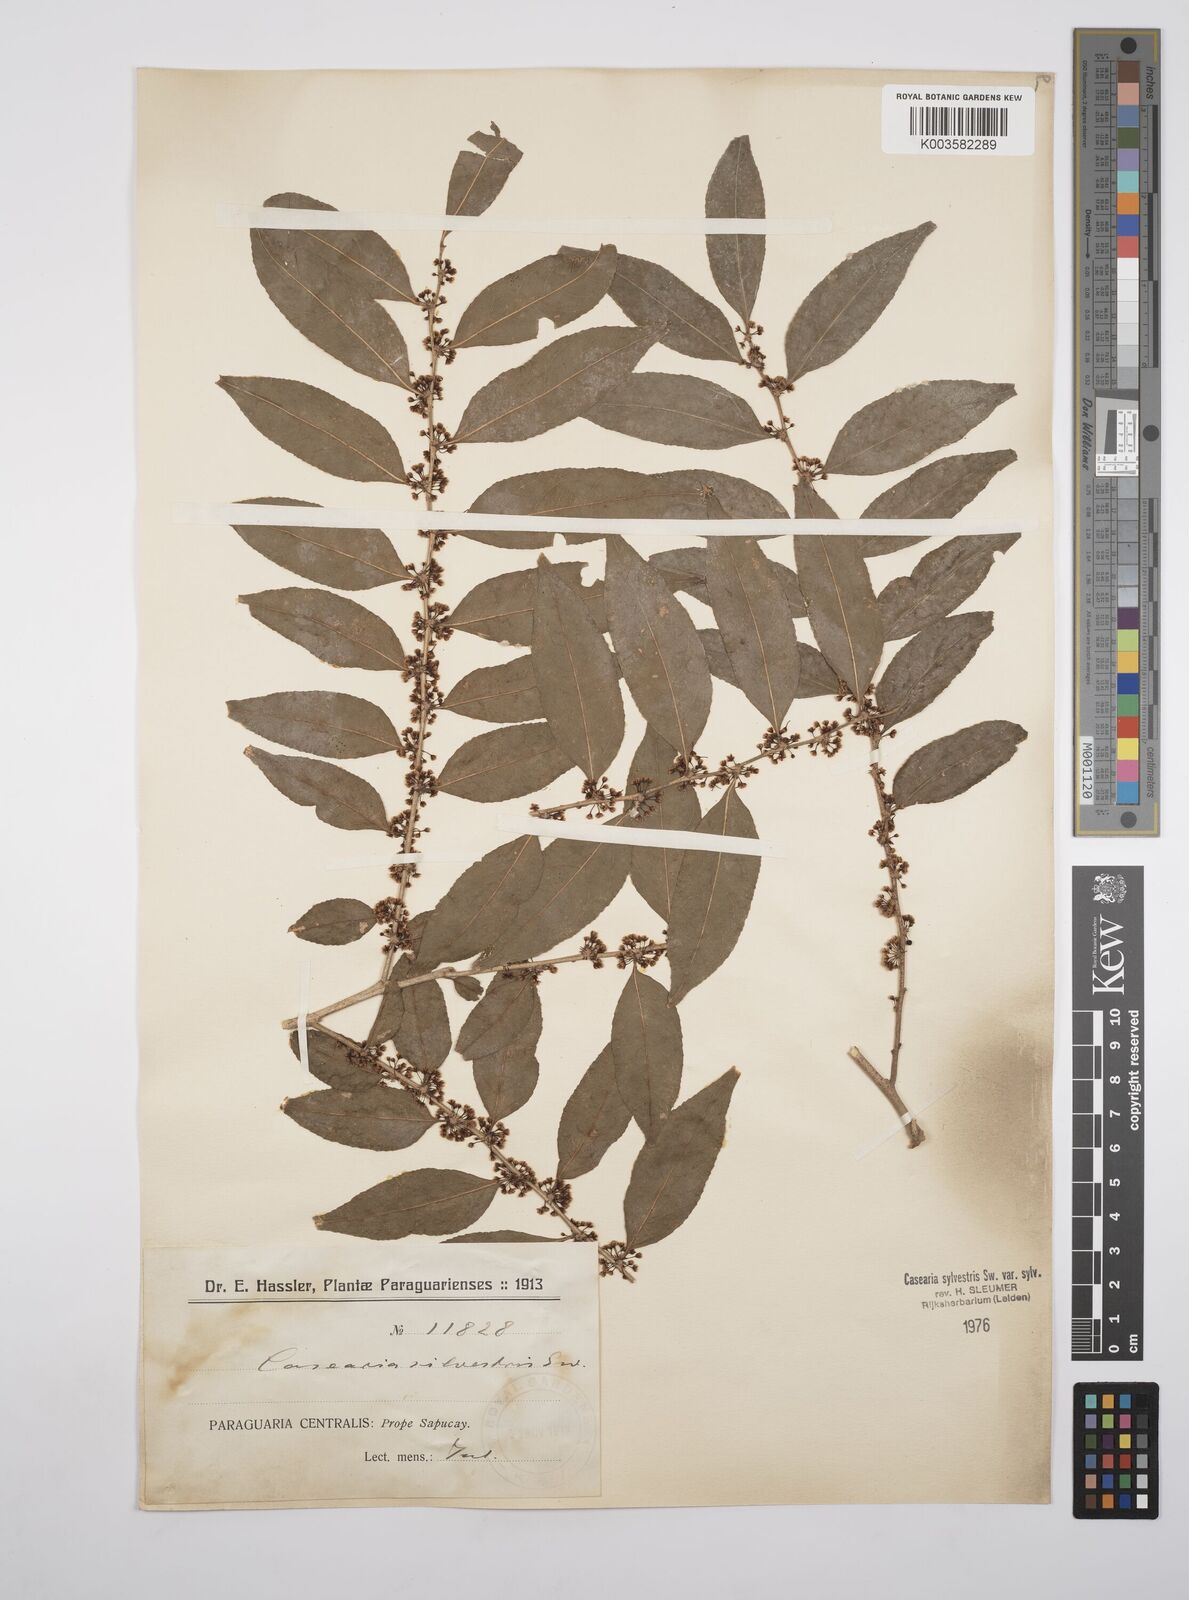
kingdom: Plantae
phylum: Tracheophyta
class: Magnoliopsida
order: Malpighiales
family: Salicaceae
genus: Casearia
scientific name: Casearia sylvestris
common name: Wild sage
